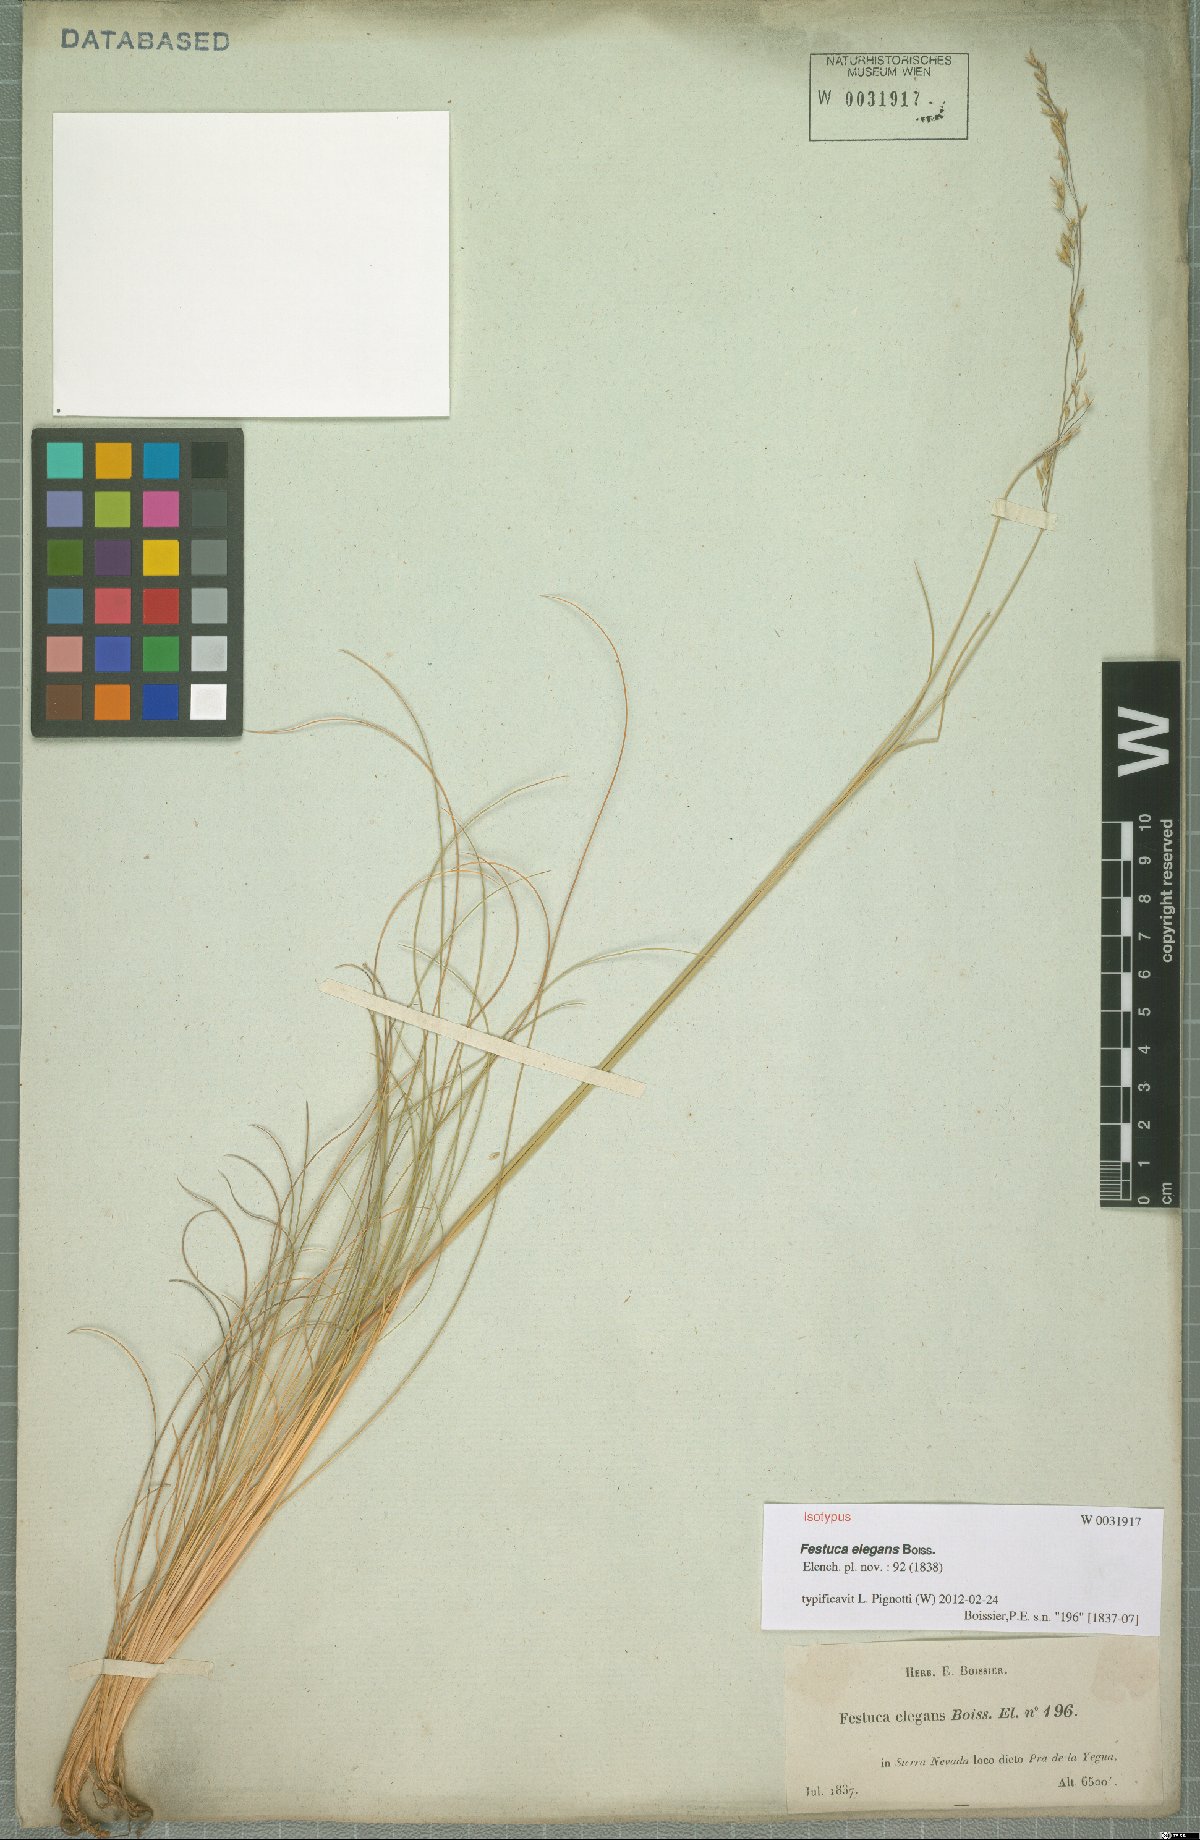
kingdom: Plantae
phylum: Tracheophyta
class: Liliopsida
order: Poales
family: Poaceae
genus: Festuca
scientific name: Festuca elegans
